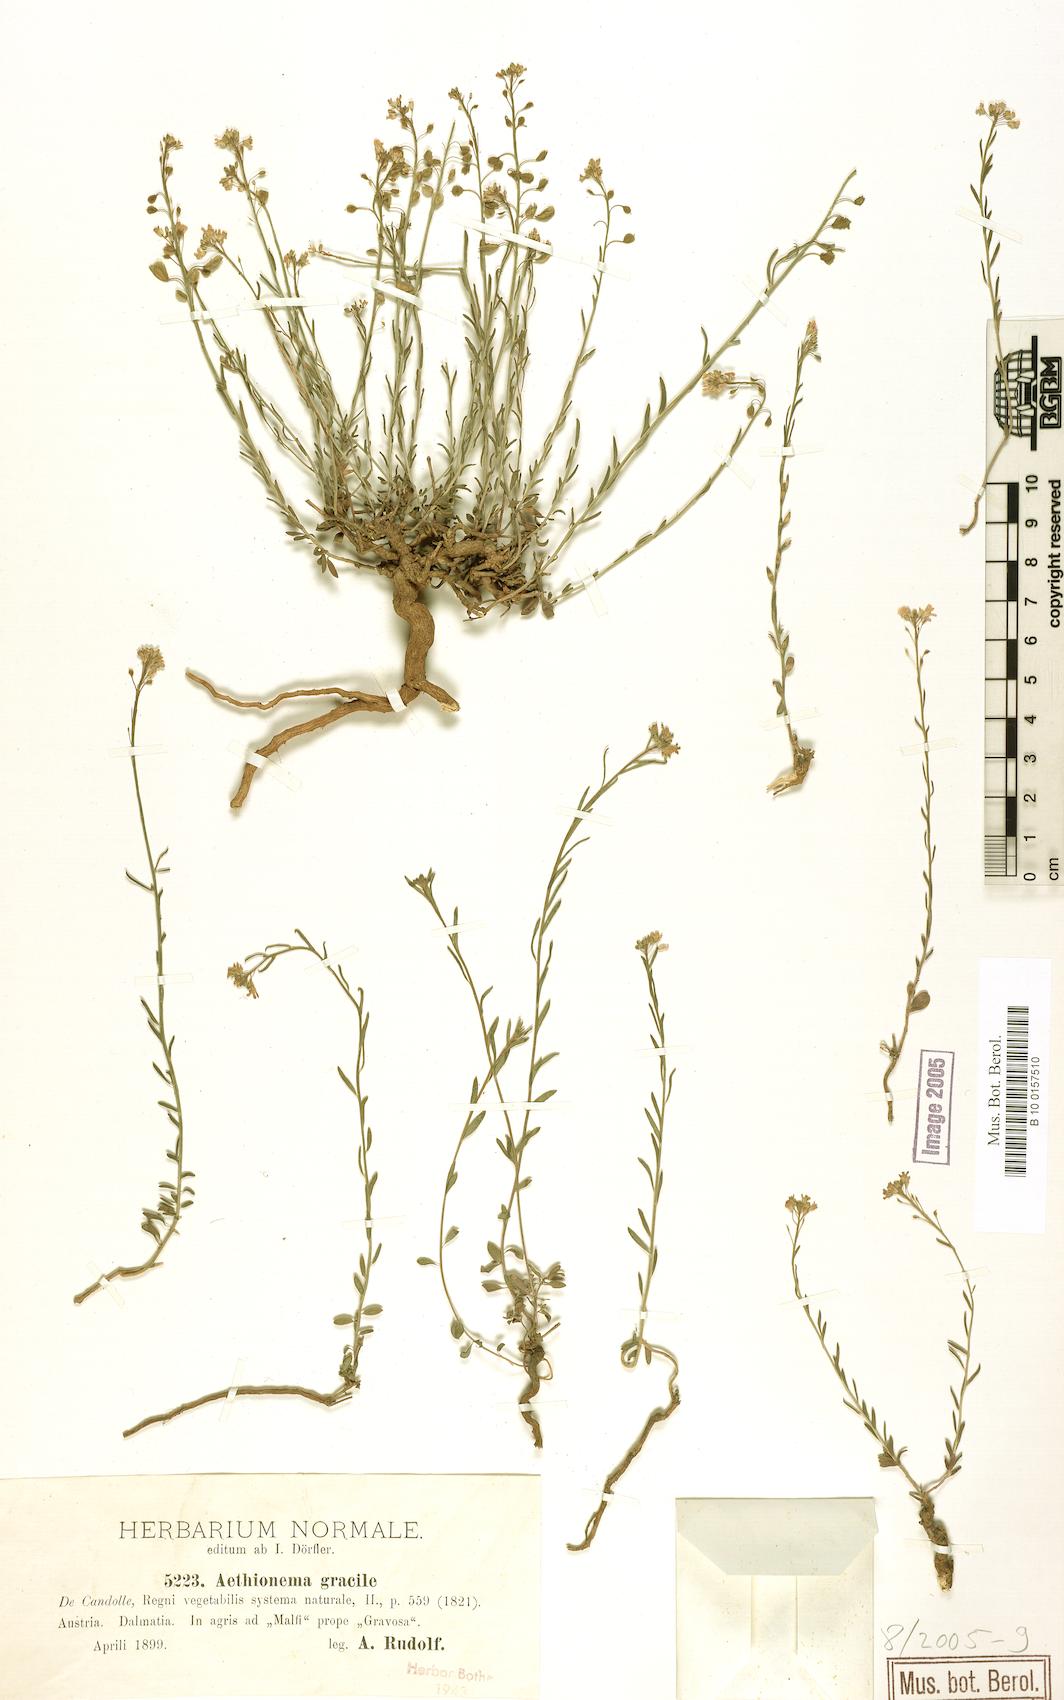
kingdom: Plantae
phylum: Tracheophyta
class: Magnoliopsida
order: Brassicales
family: Brassicaceae
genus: Aethionema
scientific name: Aethionema saxatile
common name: Burnt candytuft
